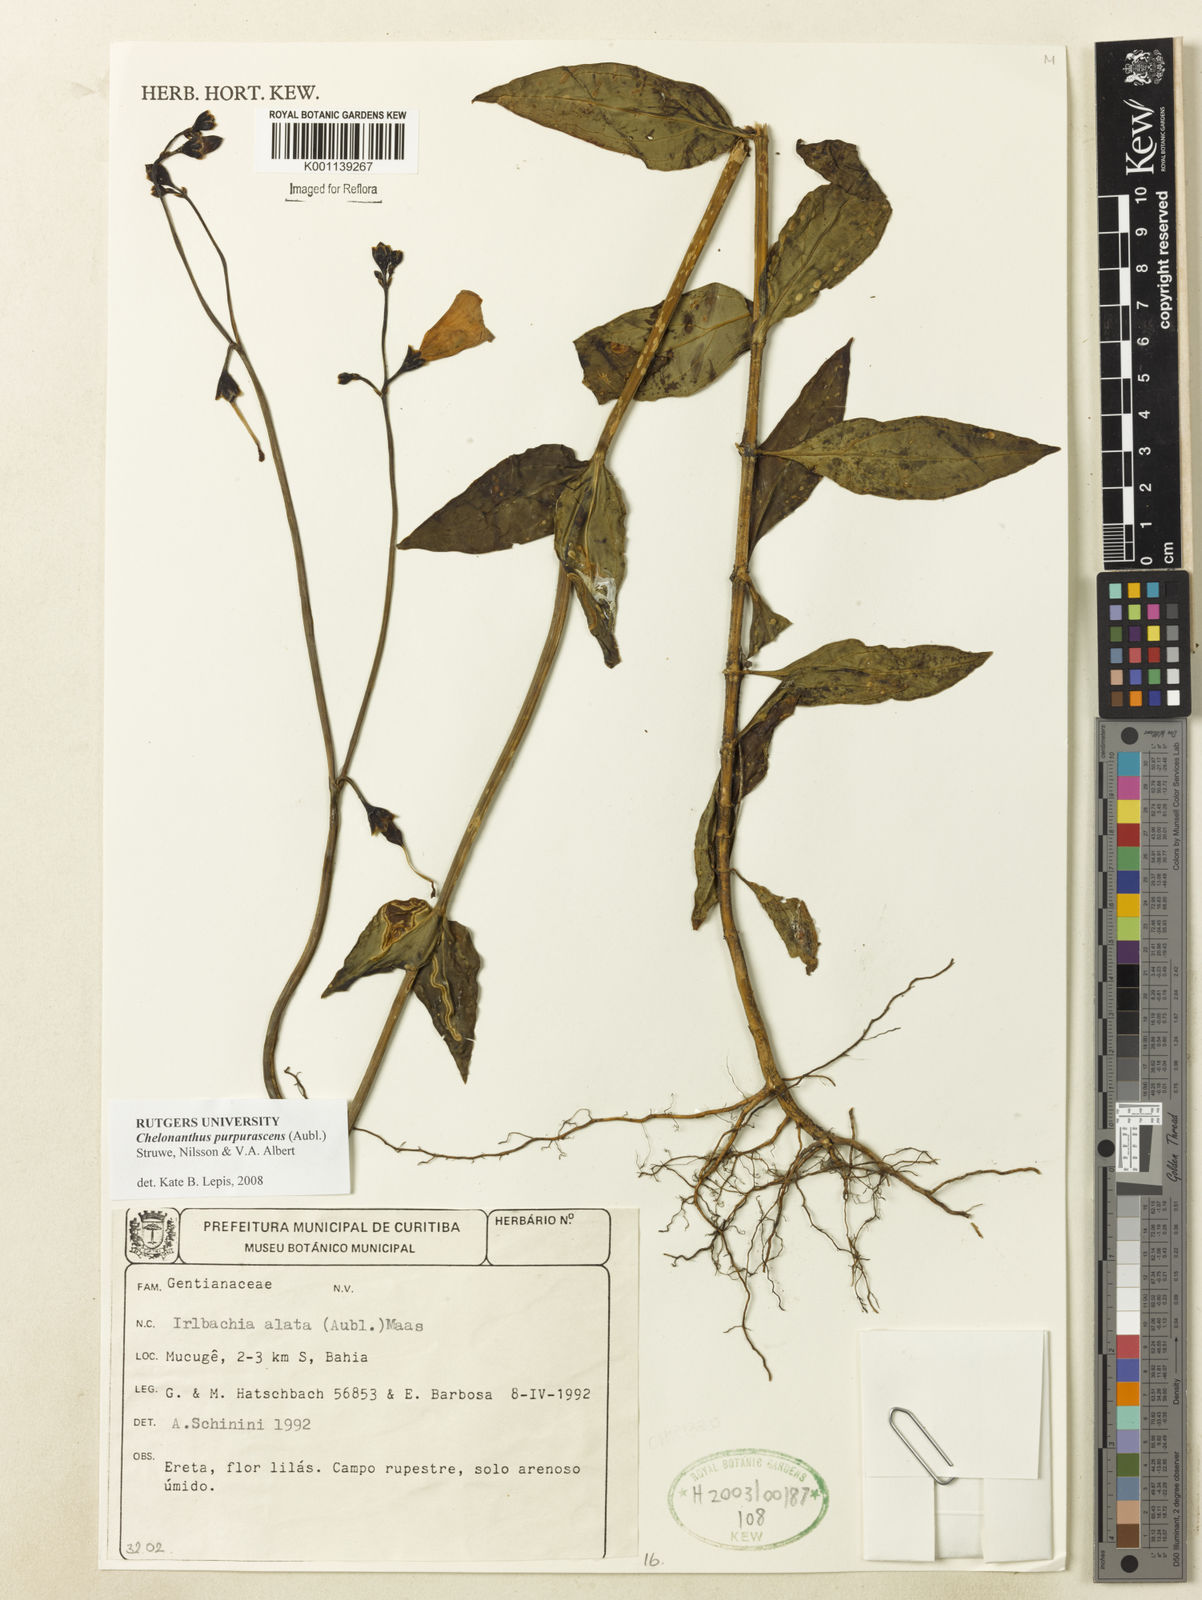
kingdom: Plantae
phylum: Tracheophyta
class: Magnoliopsida
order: Gentianales
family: Gentianaceae
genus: Chelonanthus
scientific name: Chelonanthus purpurascens
